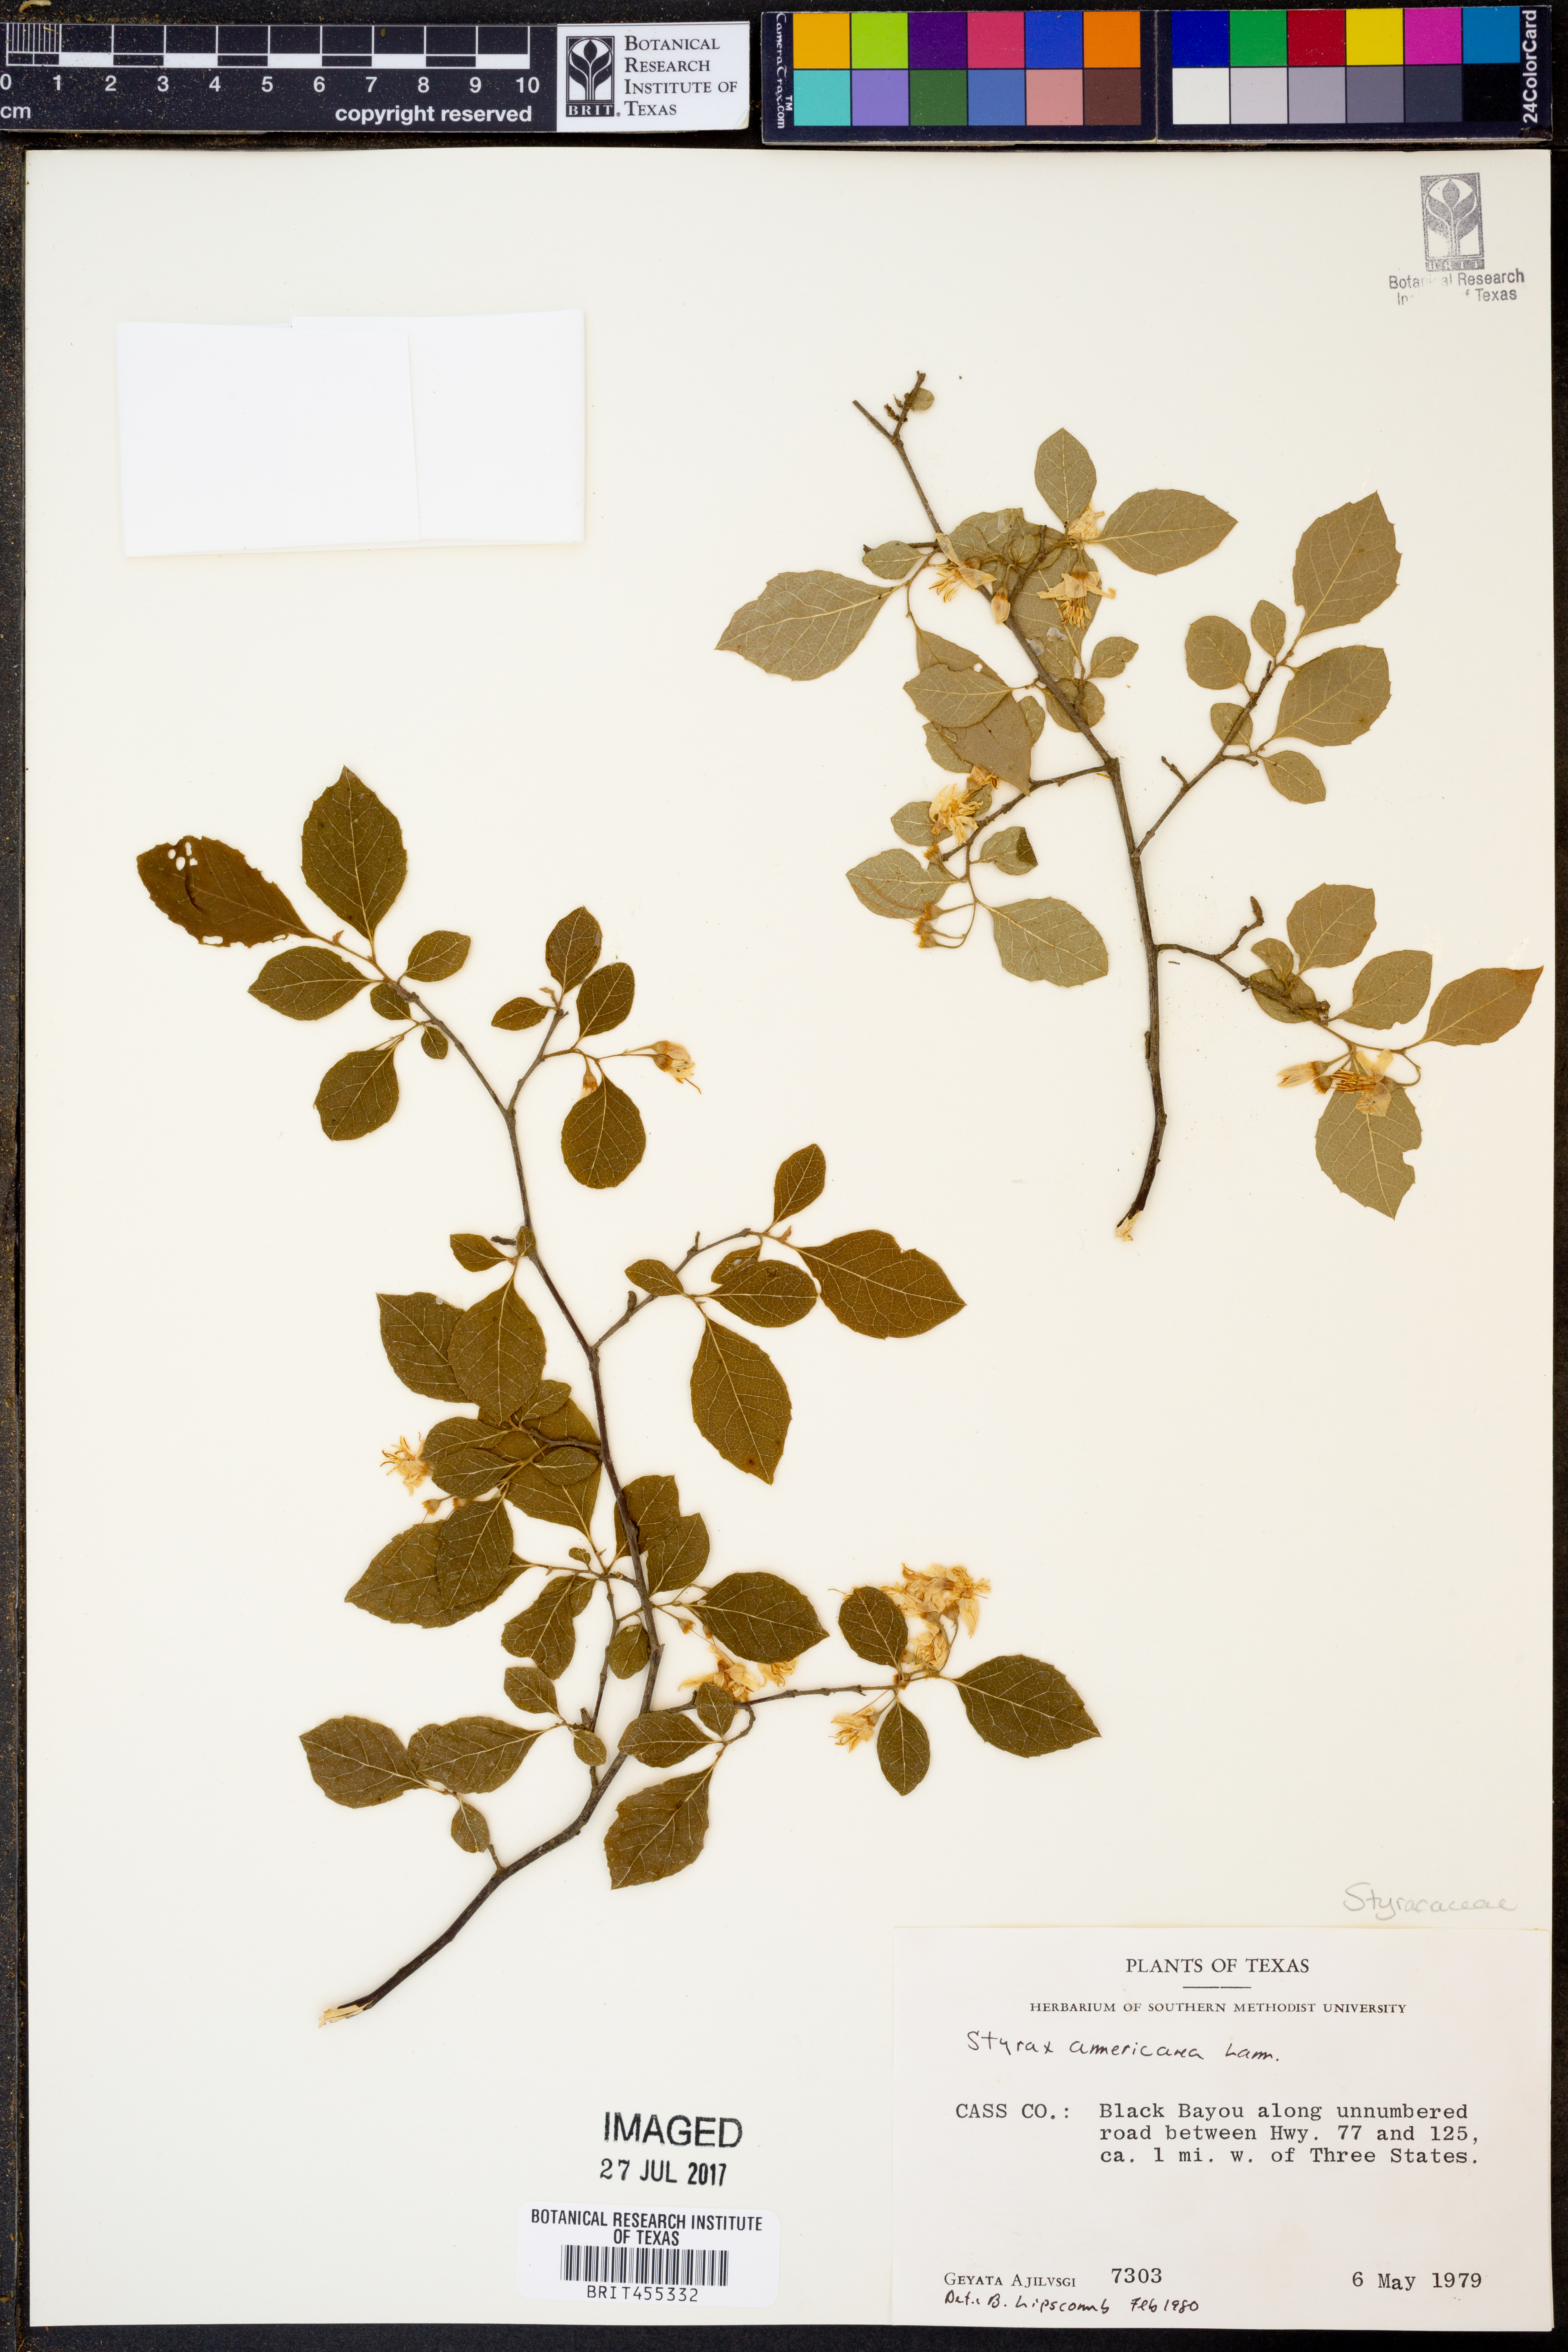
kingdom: Plantae
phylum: Tracheophyta
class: Magnoliopsida
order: Ericales
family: Styracaceae
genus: Styrax
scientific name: Styrax americanus
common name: American snowbell
